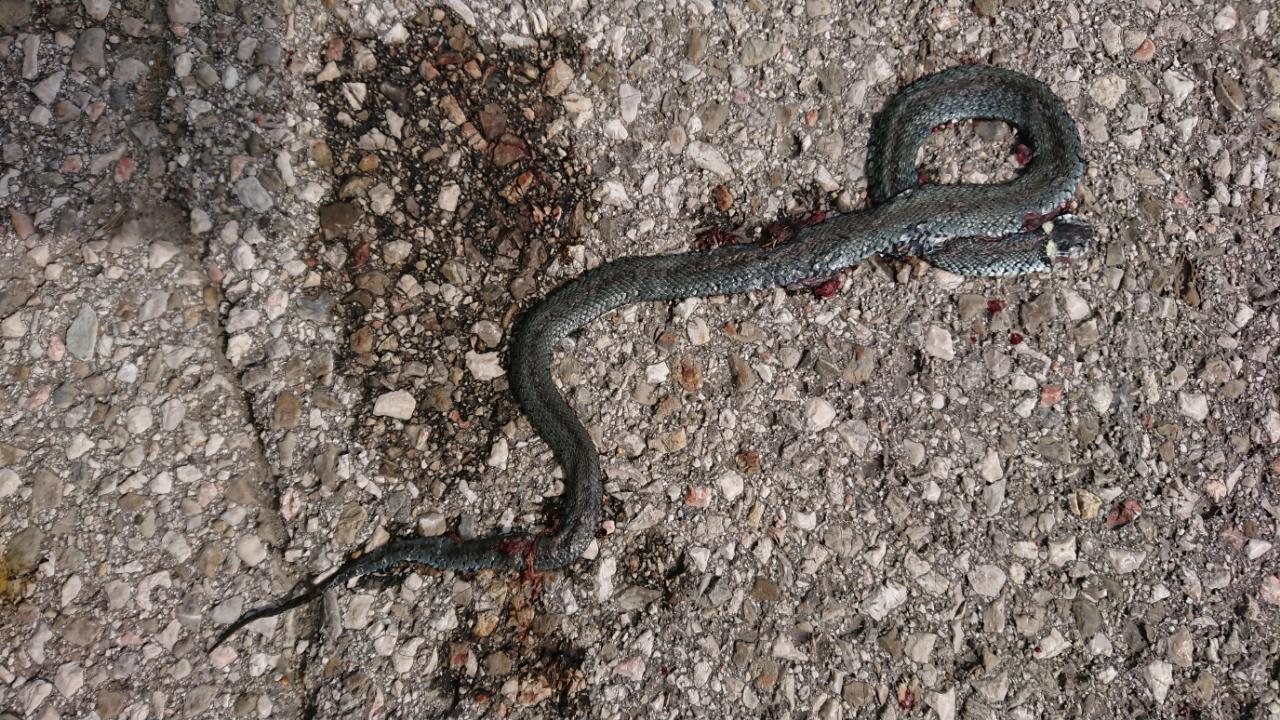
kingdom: Animalia
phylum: Chordata
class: Squamata
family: Colubridae
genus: Natrix
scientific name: Natrix natrix
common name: Grass snake
